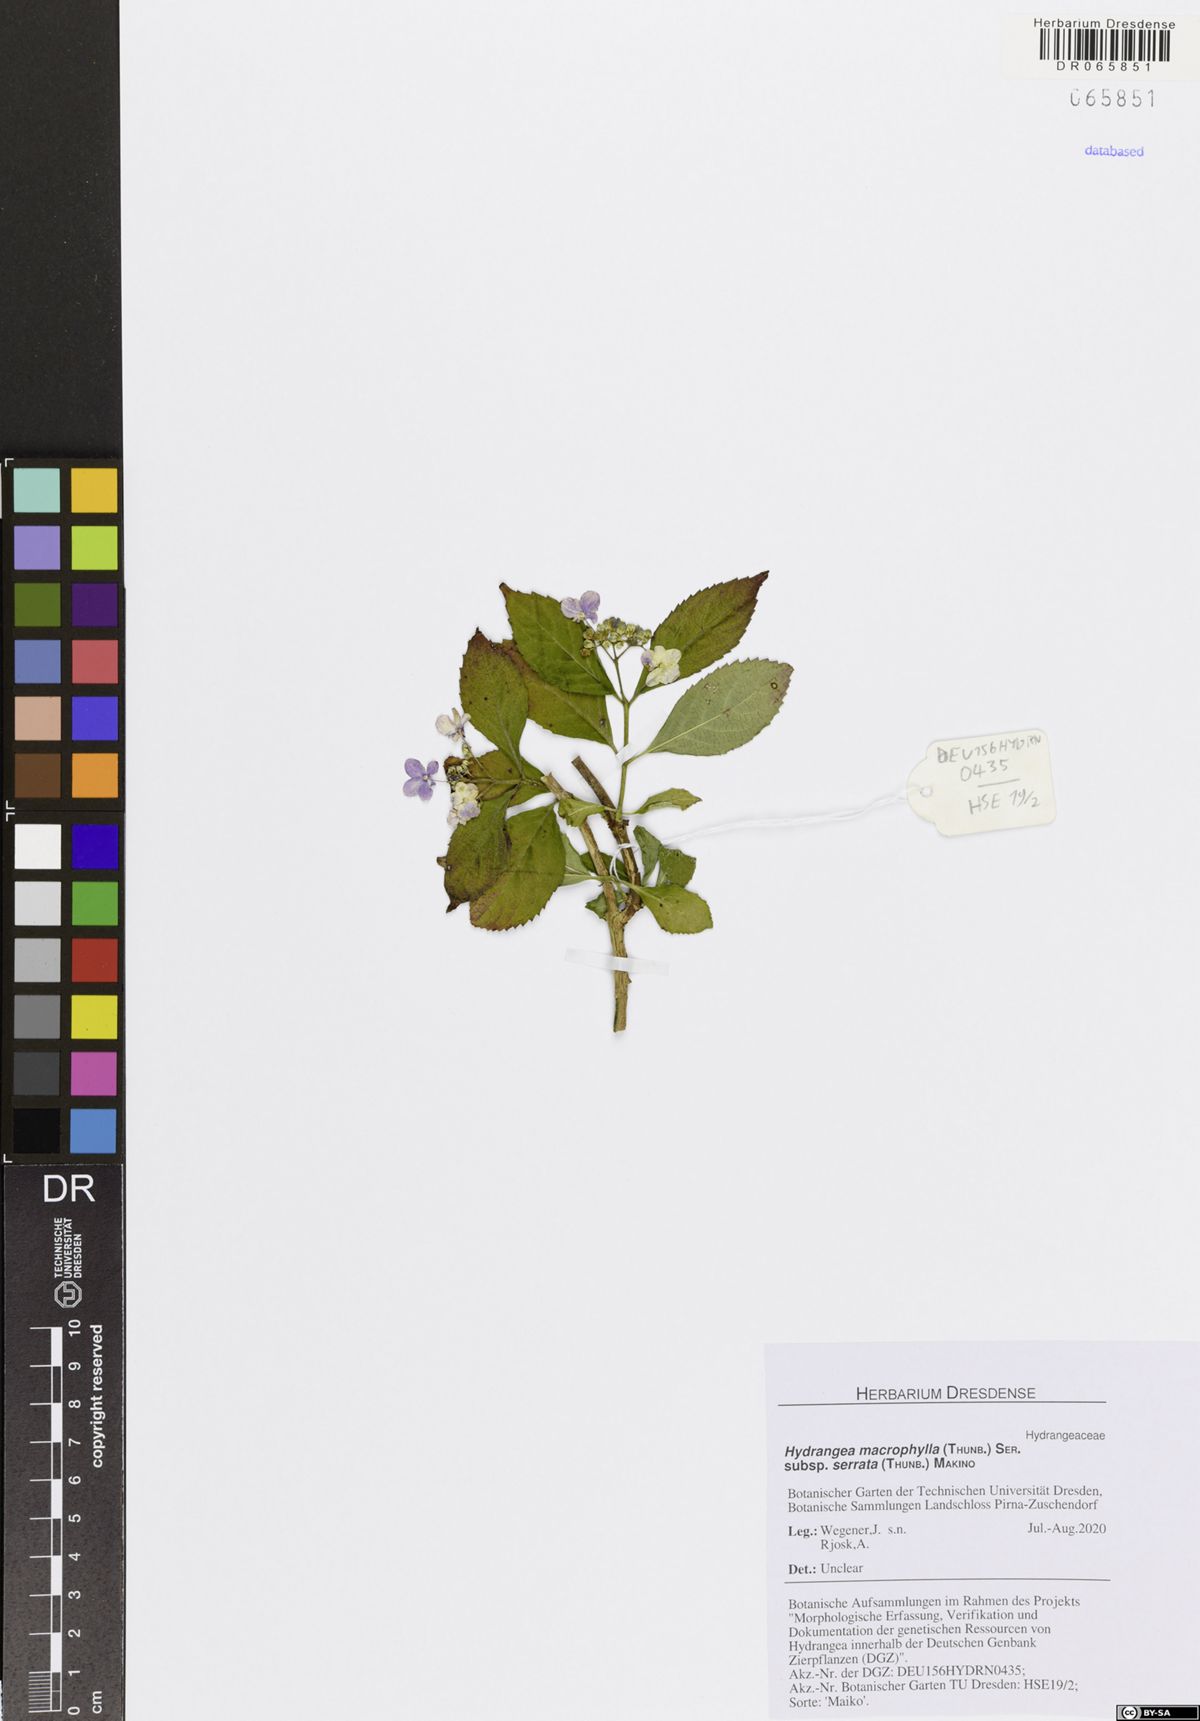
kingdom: Plantae
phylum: Tracheophyta
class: Magnoliopsida
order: Cornales
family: Hydrangeaceae
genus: Hydrangea
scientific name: Hydrangea serrata
